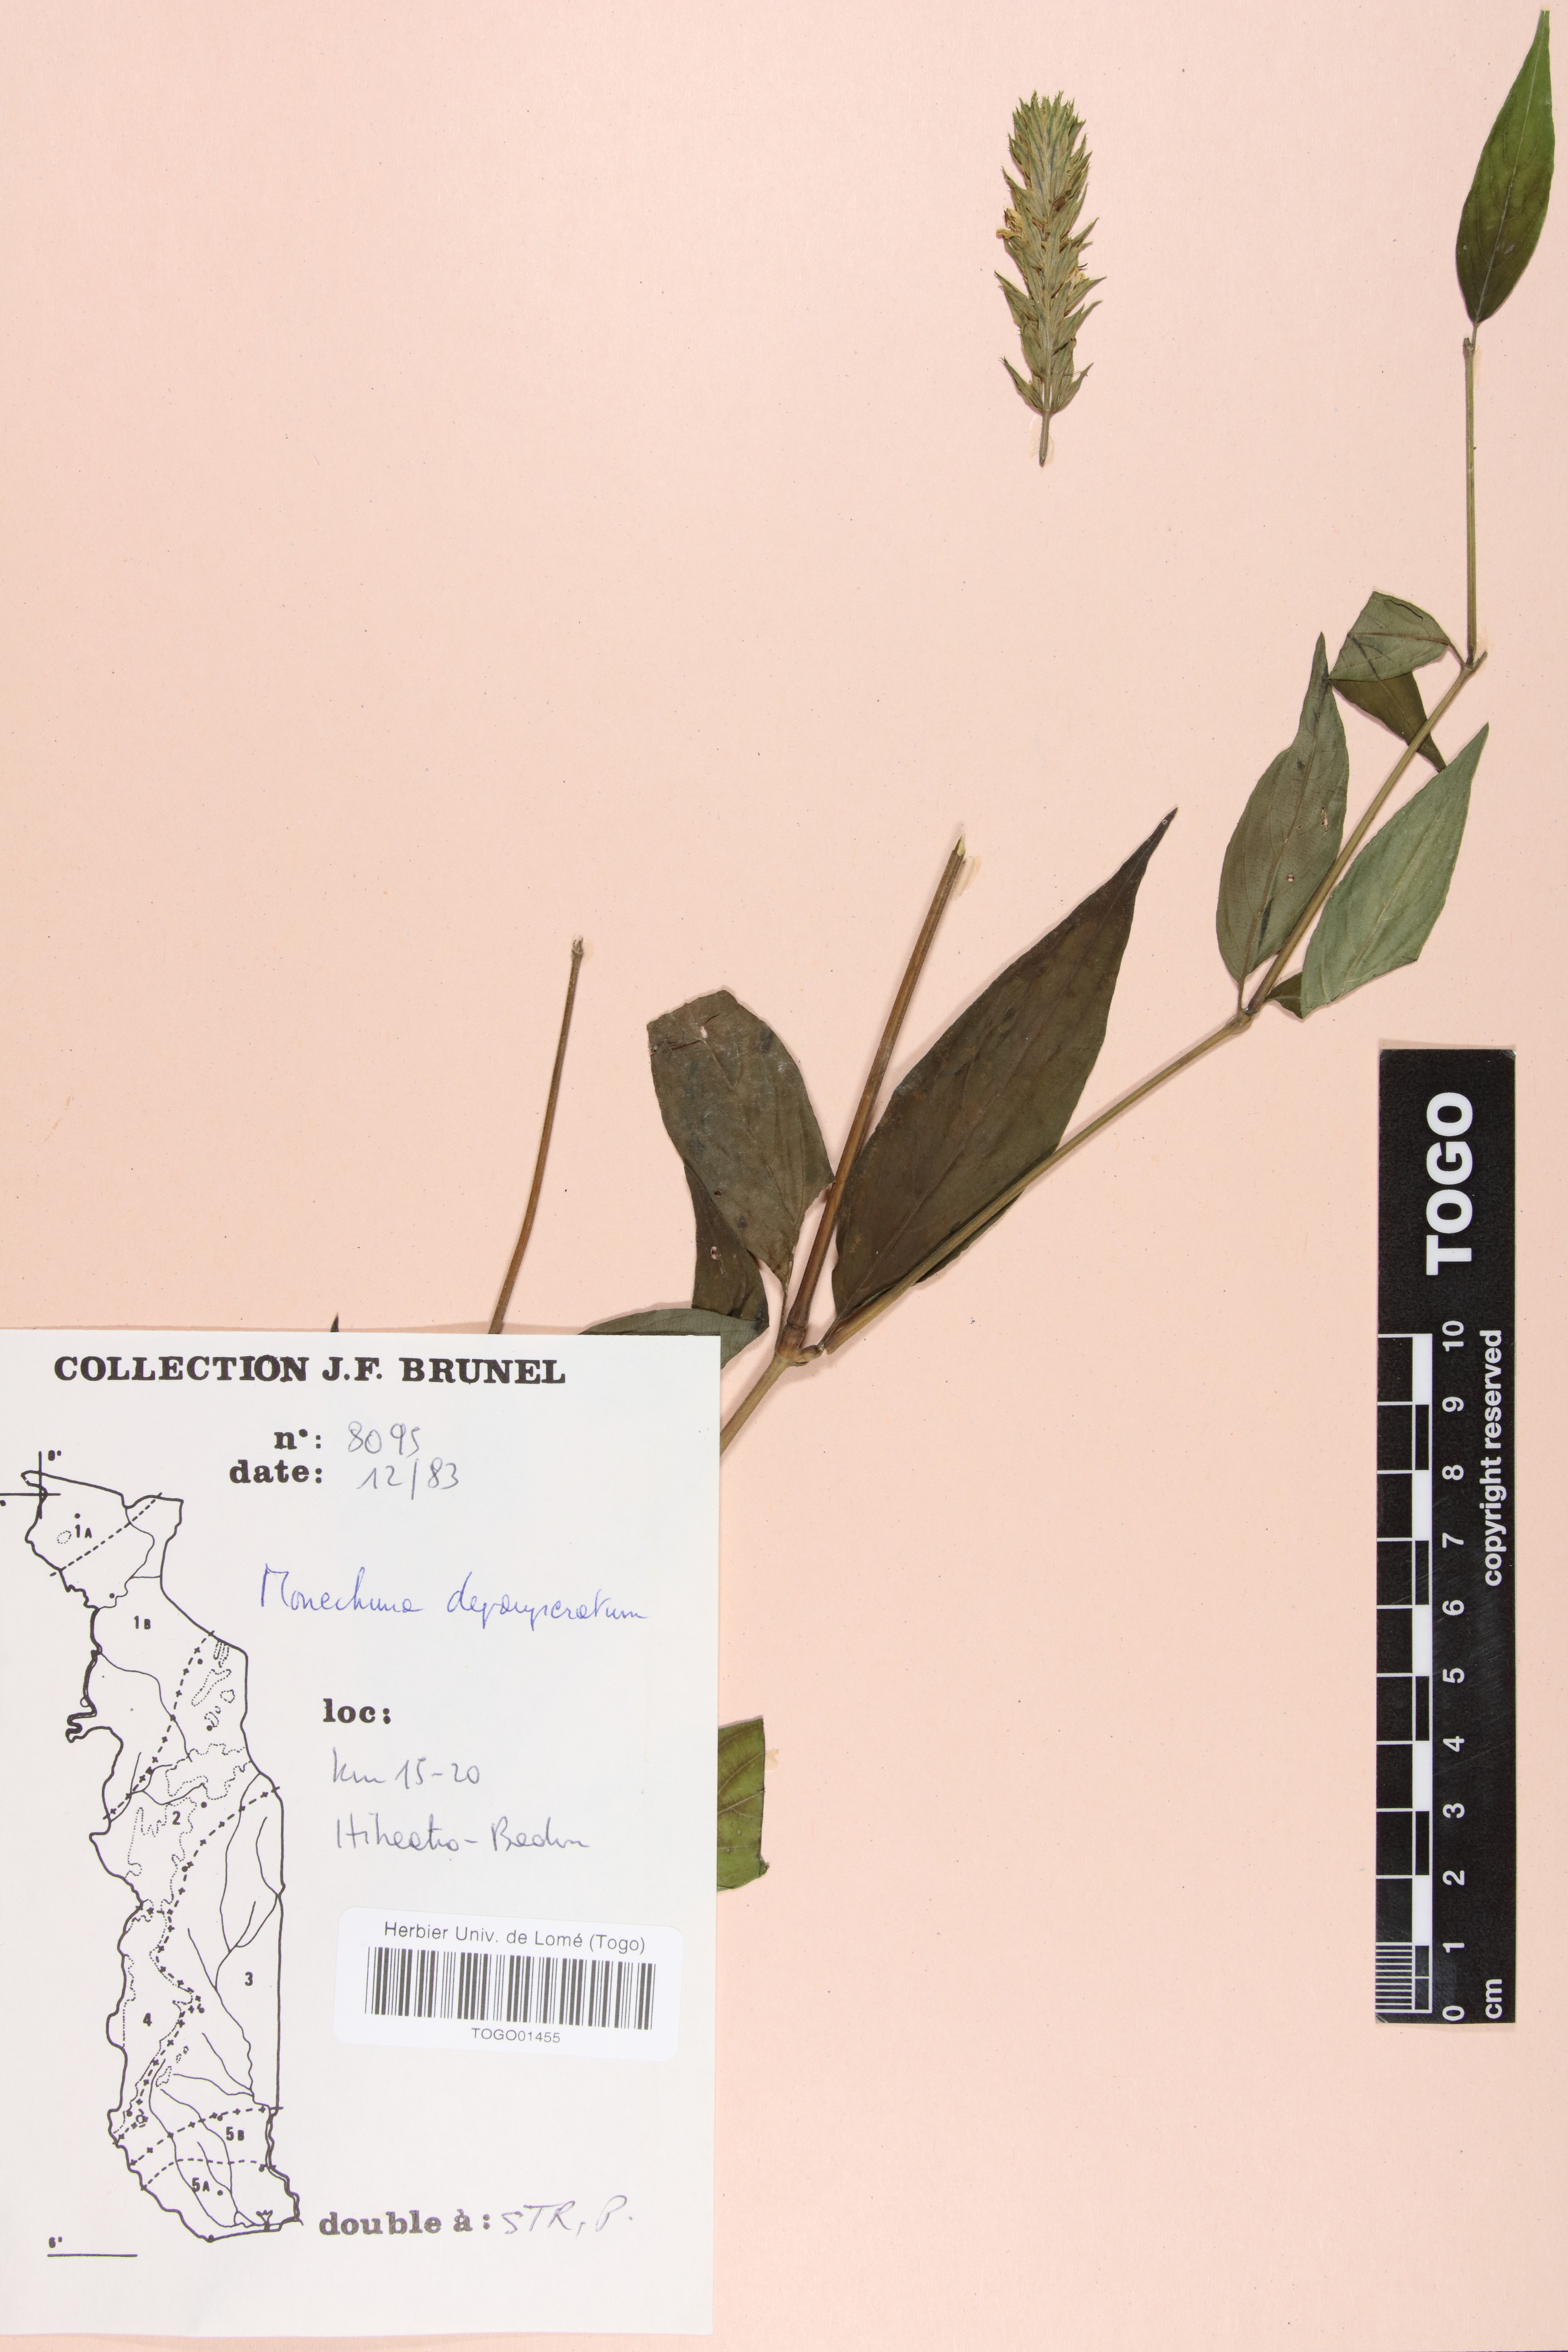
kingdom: Plantae
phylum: Tracheophyta
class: Magnoliopsida
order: Lamiales
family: Acanthaceae
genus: Monechma
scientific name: Monechma depauperatum
